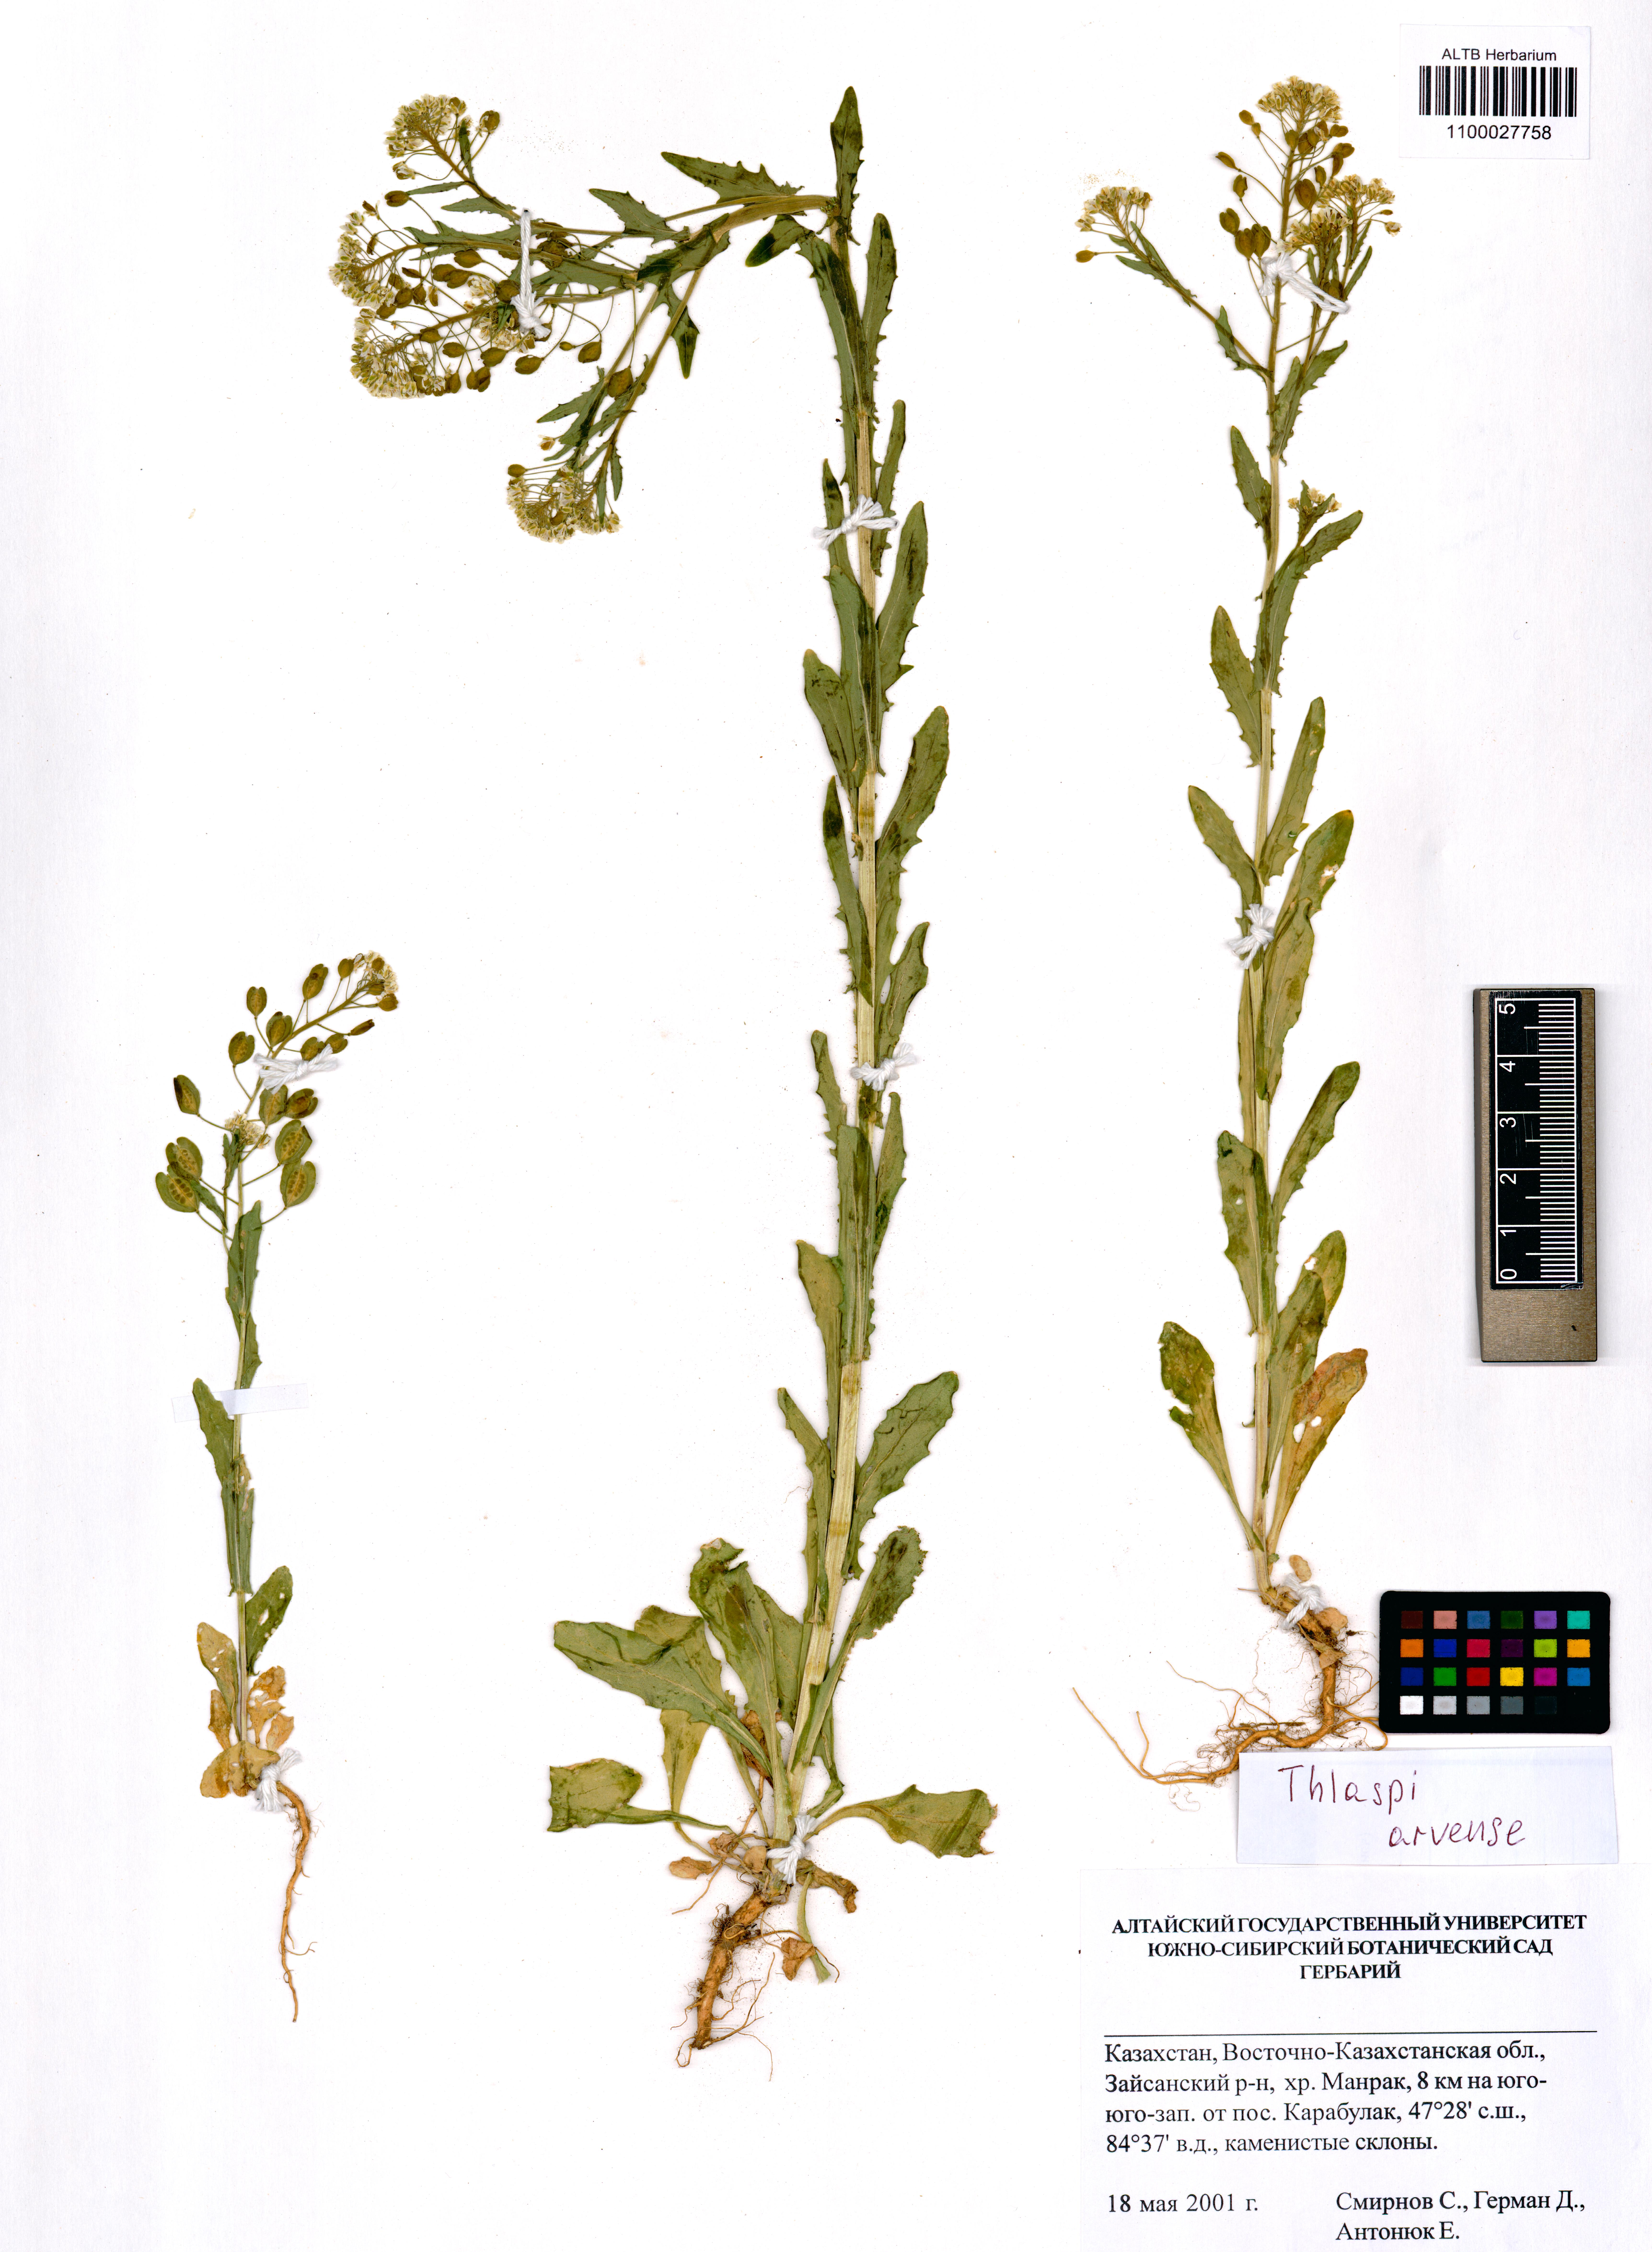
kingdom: Plantae
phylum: Tracheophyta
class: Magnoliopsida
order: Brassicales
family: Brassicaceae
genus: Thlaspi
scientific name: Thlaspi arvense
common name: Field pennycress
